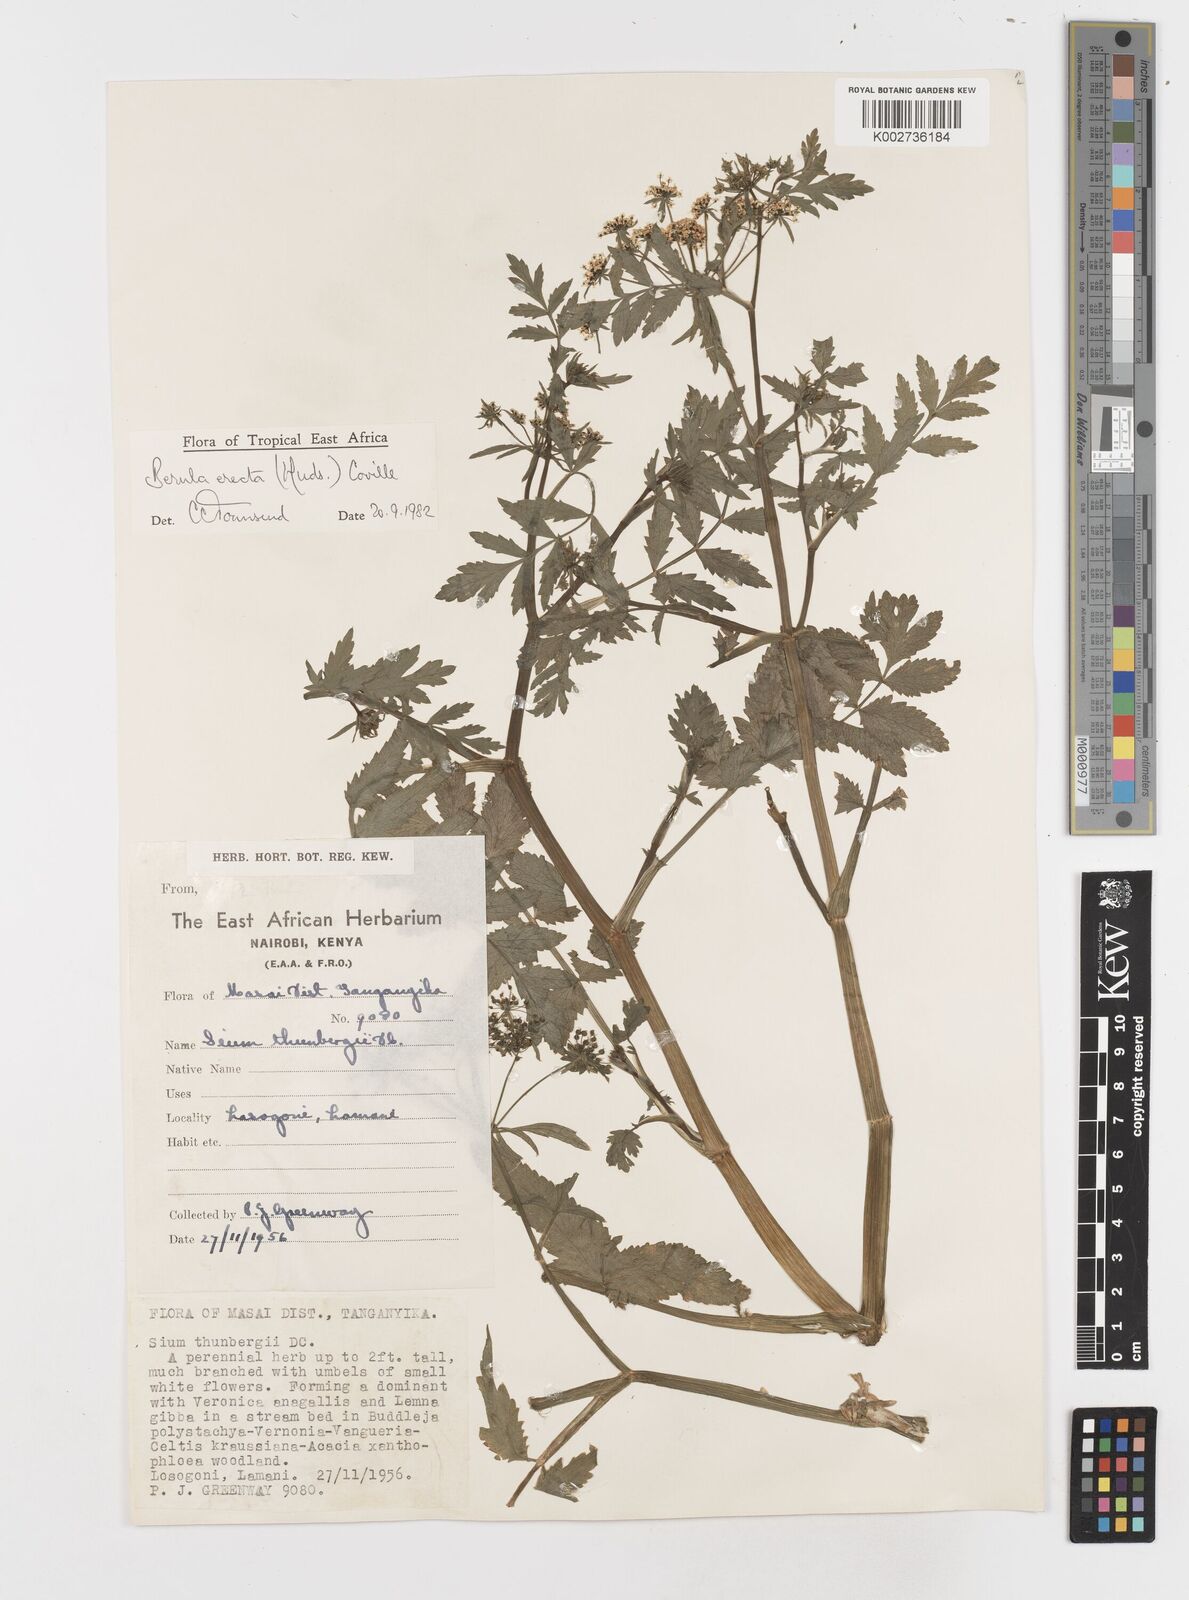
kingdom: Plantae
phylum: Tracheophyta
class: Magnoliopsida
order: Apiales
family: Apiaceae
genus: Berula
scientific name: Berula erecta
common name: Lesser water-parsnip
